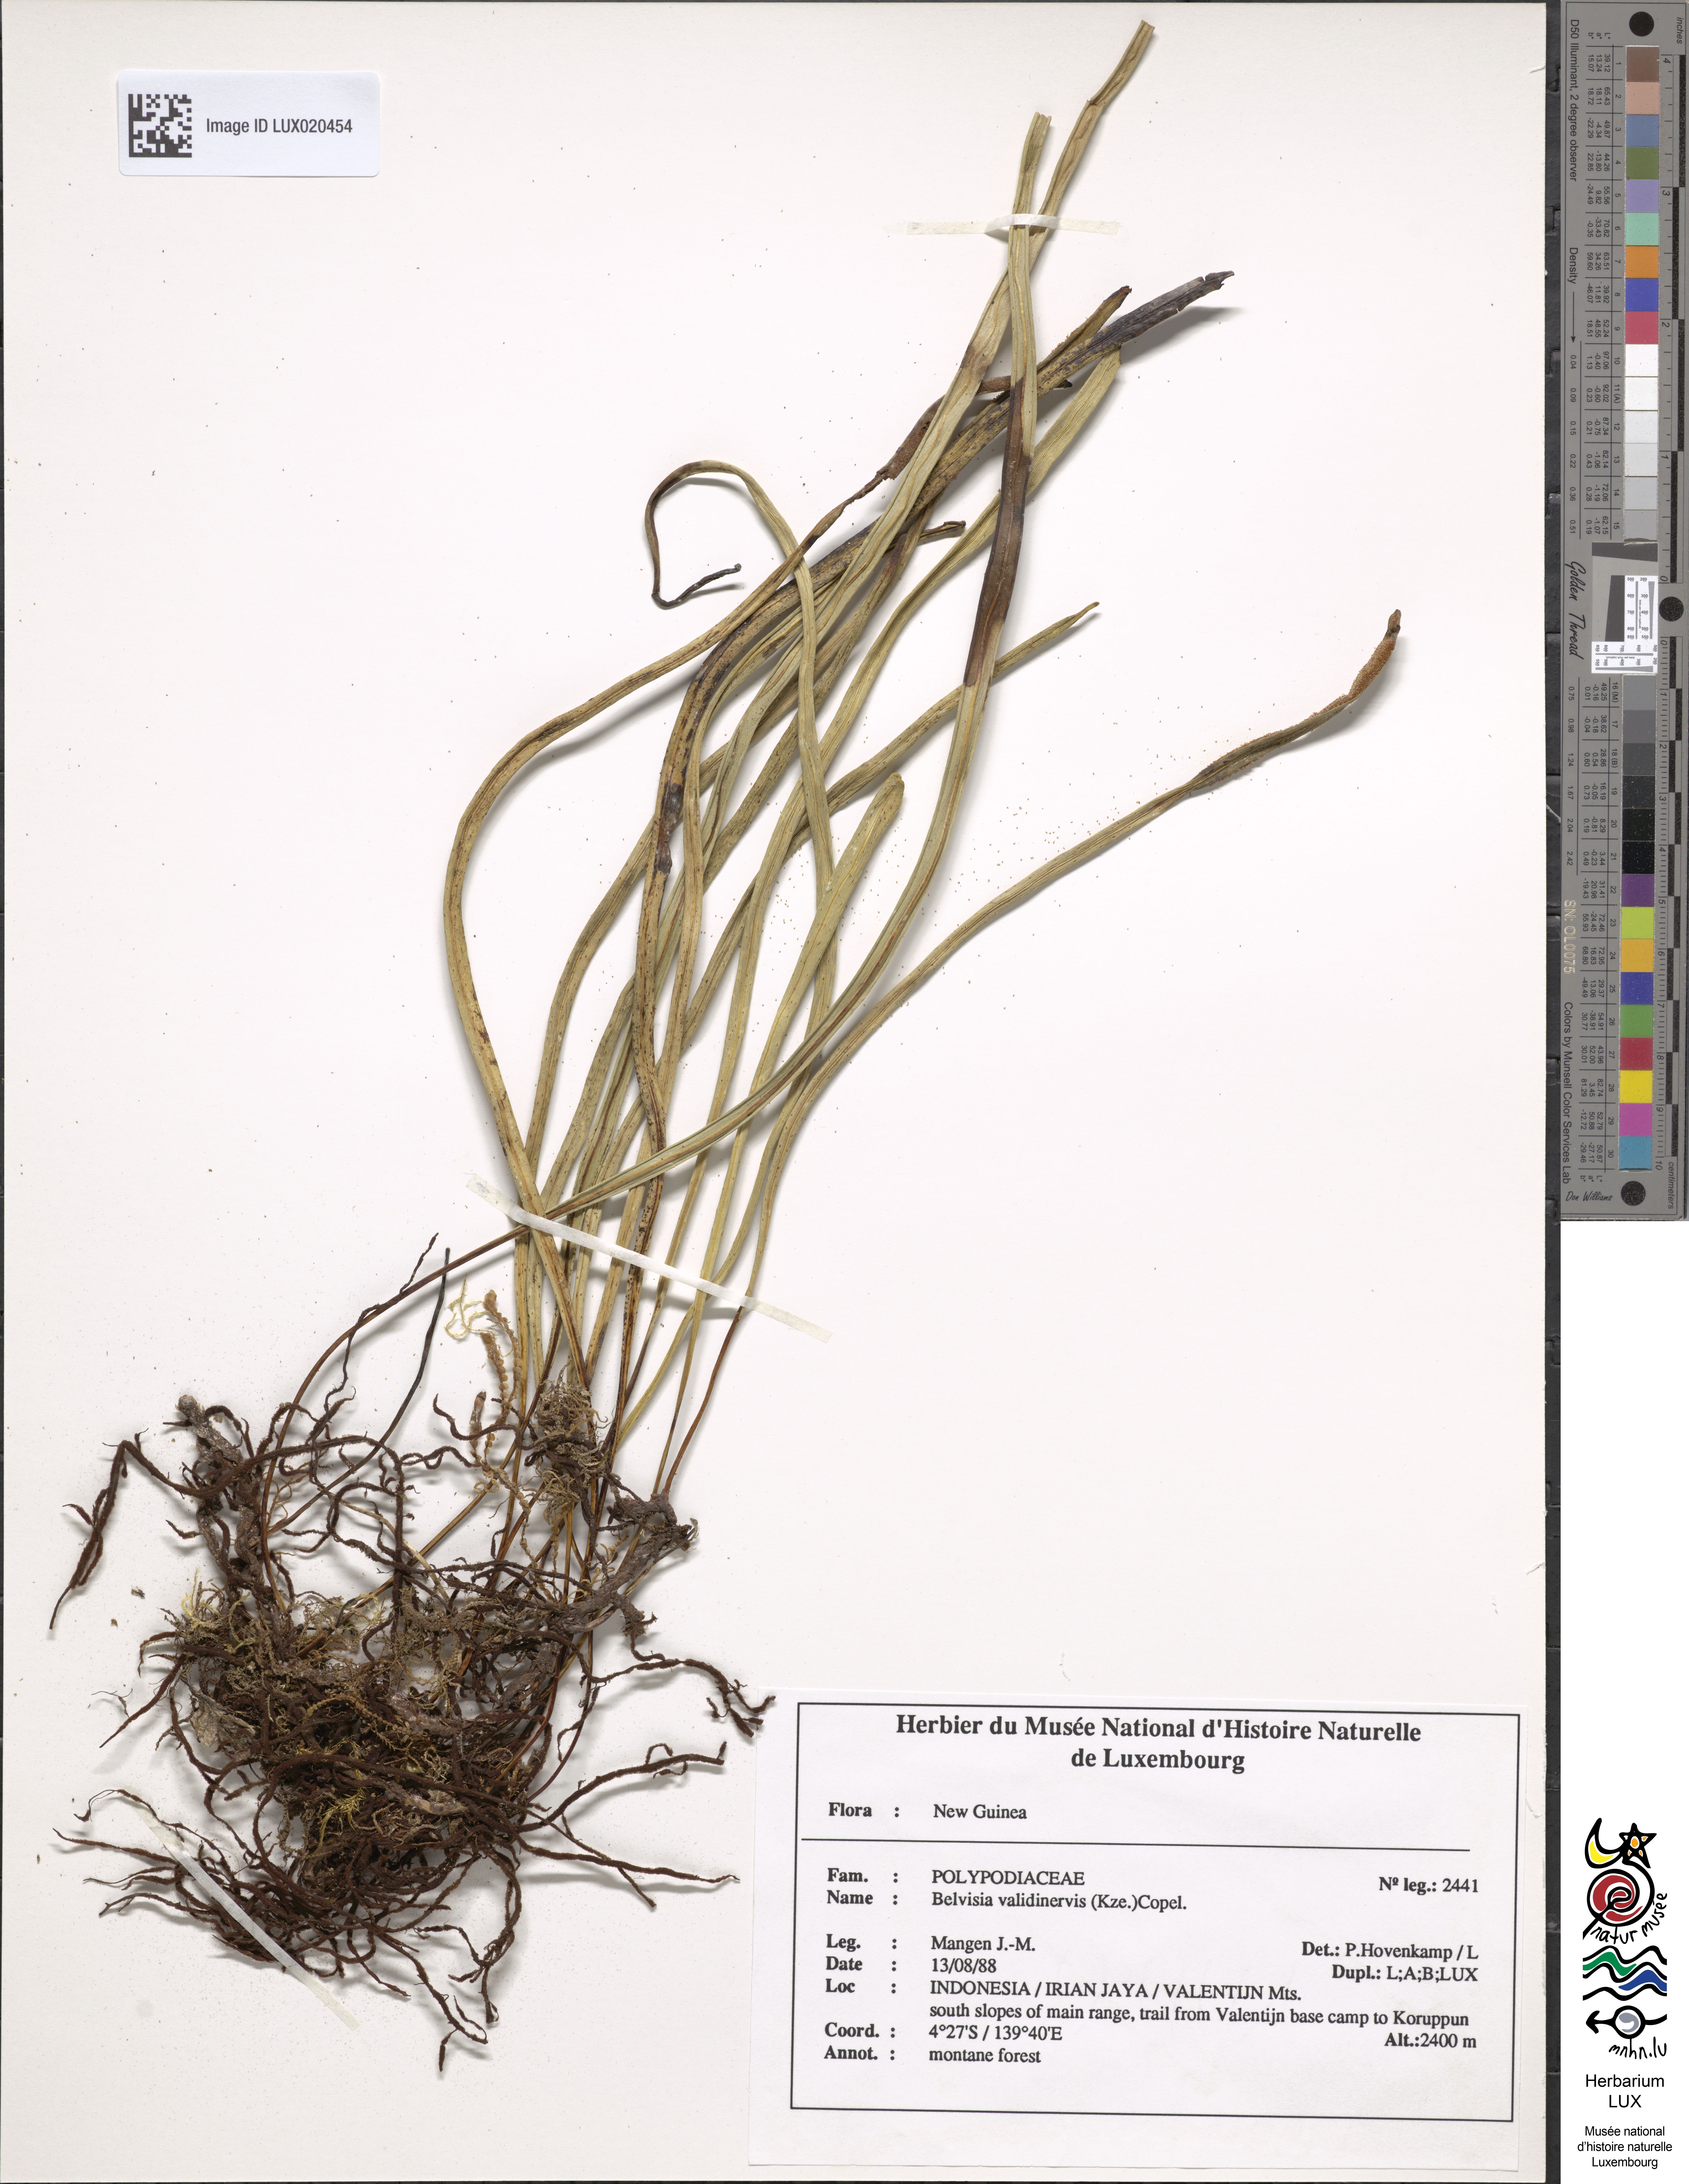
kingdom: Plantae
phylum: Tracheophyta
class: Polypodiopsida
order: Polypodiales
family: Polypodiaceae
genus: Lepisorus
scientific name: Lepisorus validinervis
